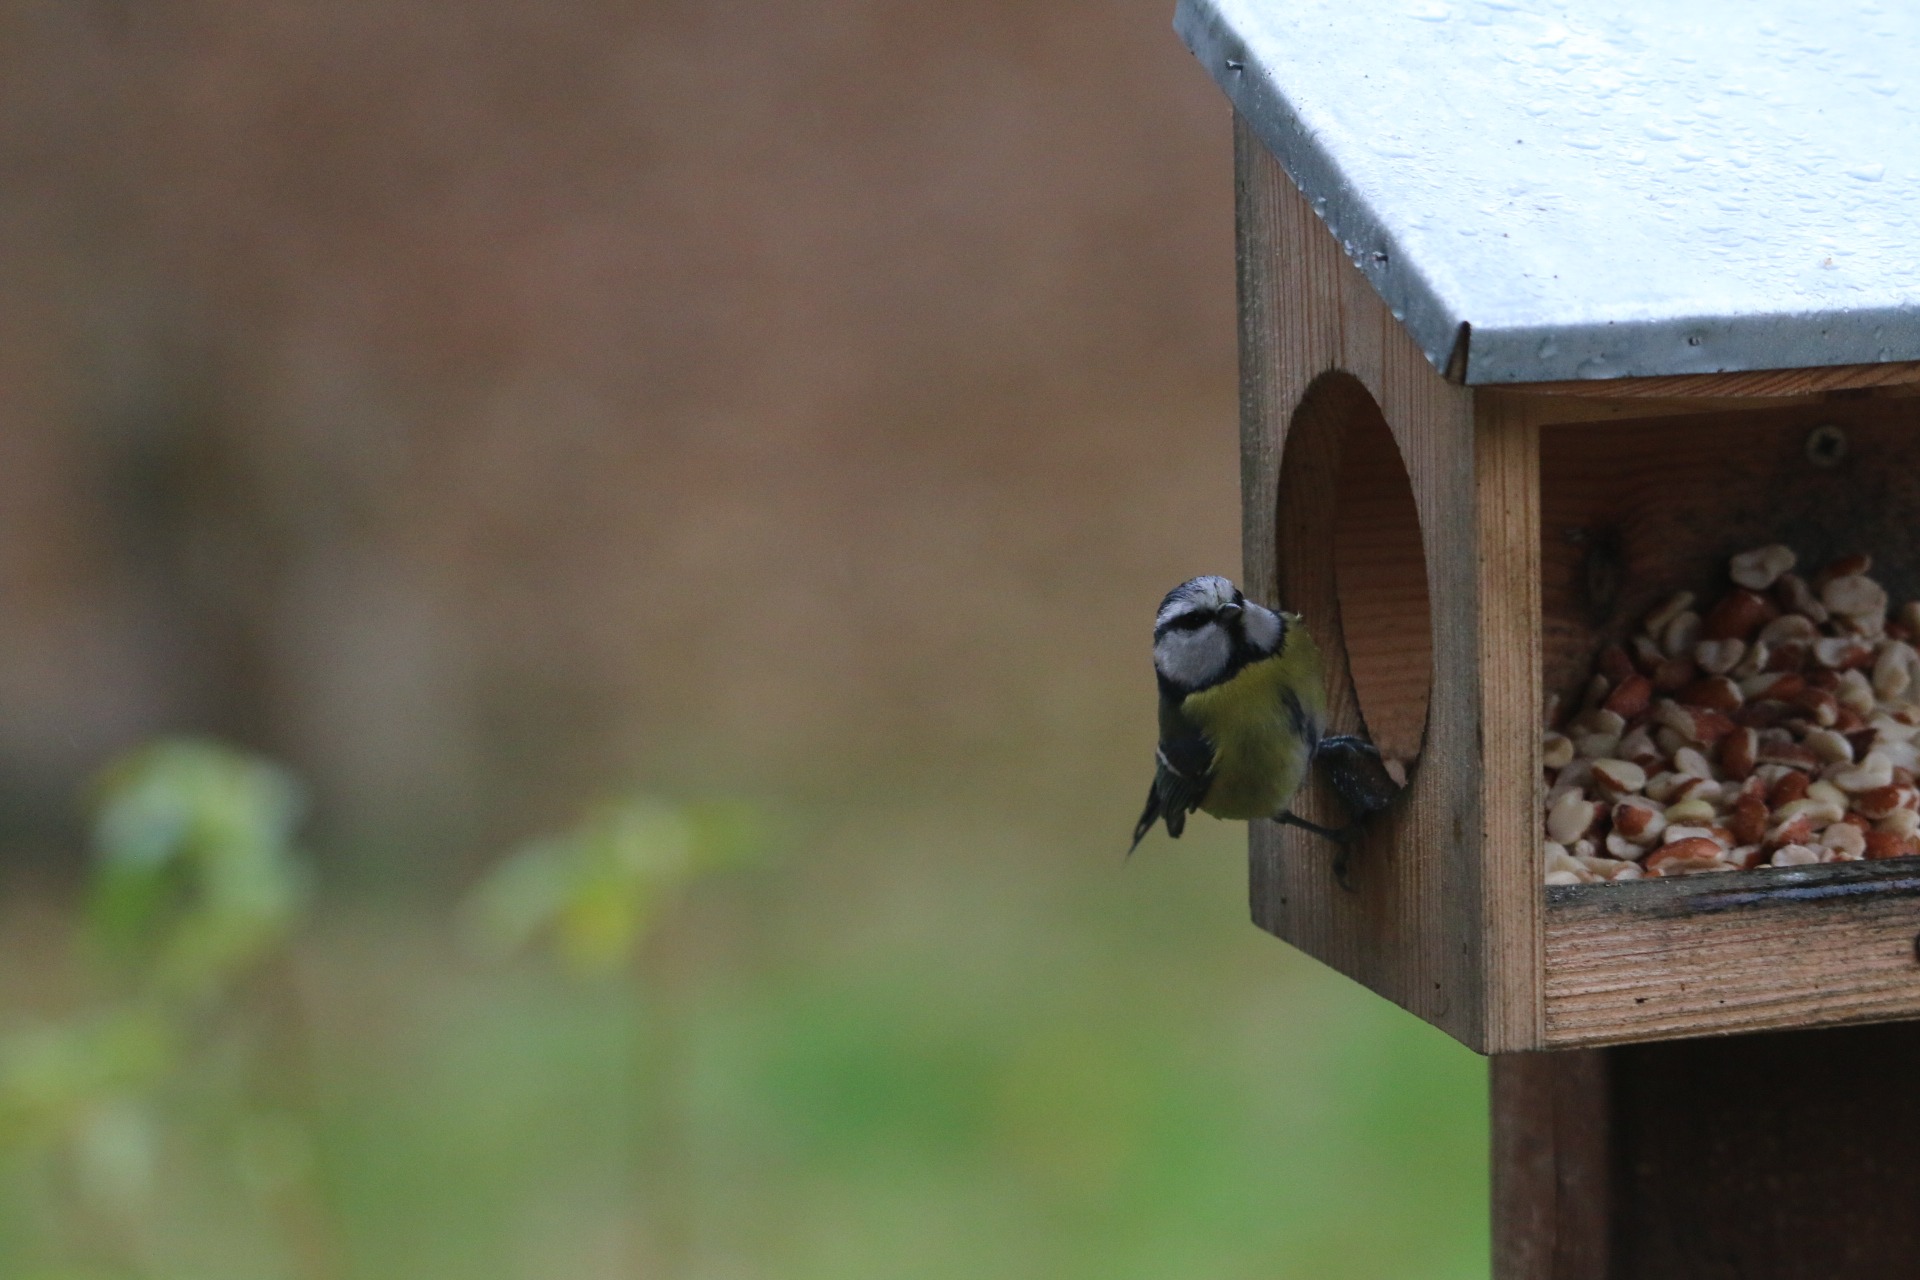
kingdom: Animalia
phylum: Chordata
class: Aves
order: Passeriformes
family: Paridae
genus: Cyanistes
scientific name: Cyanistes caeruleus
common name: Blåmejse
